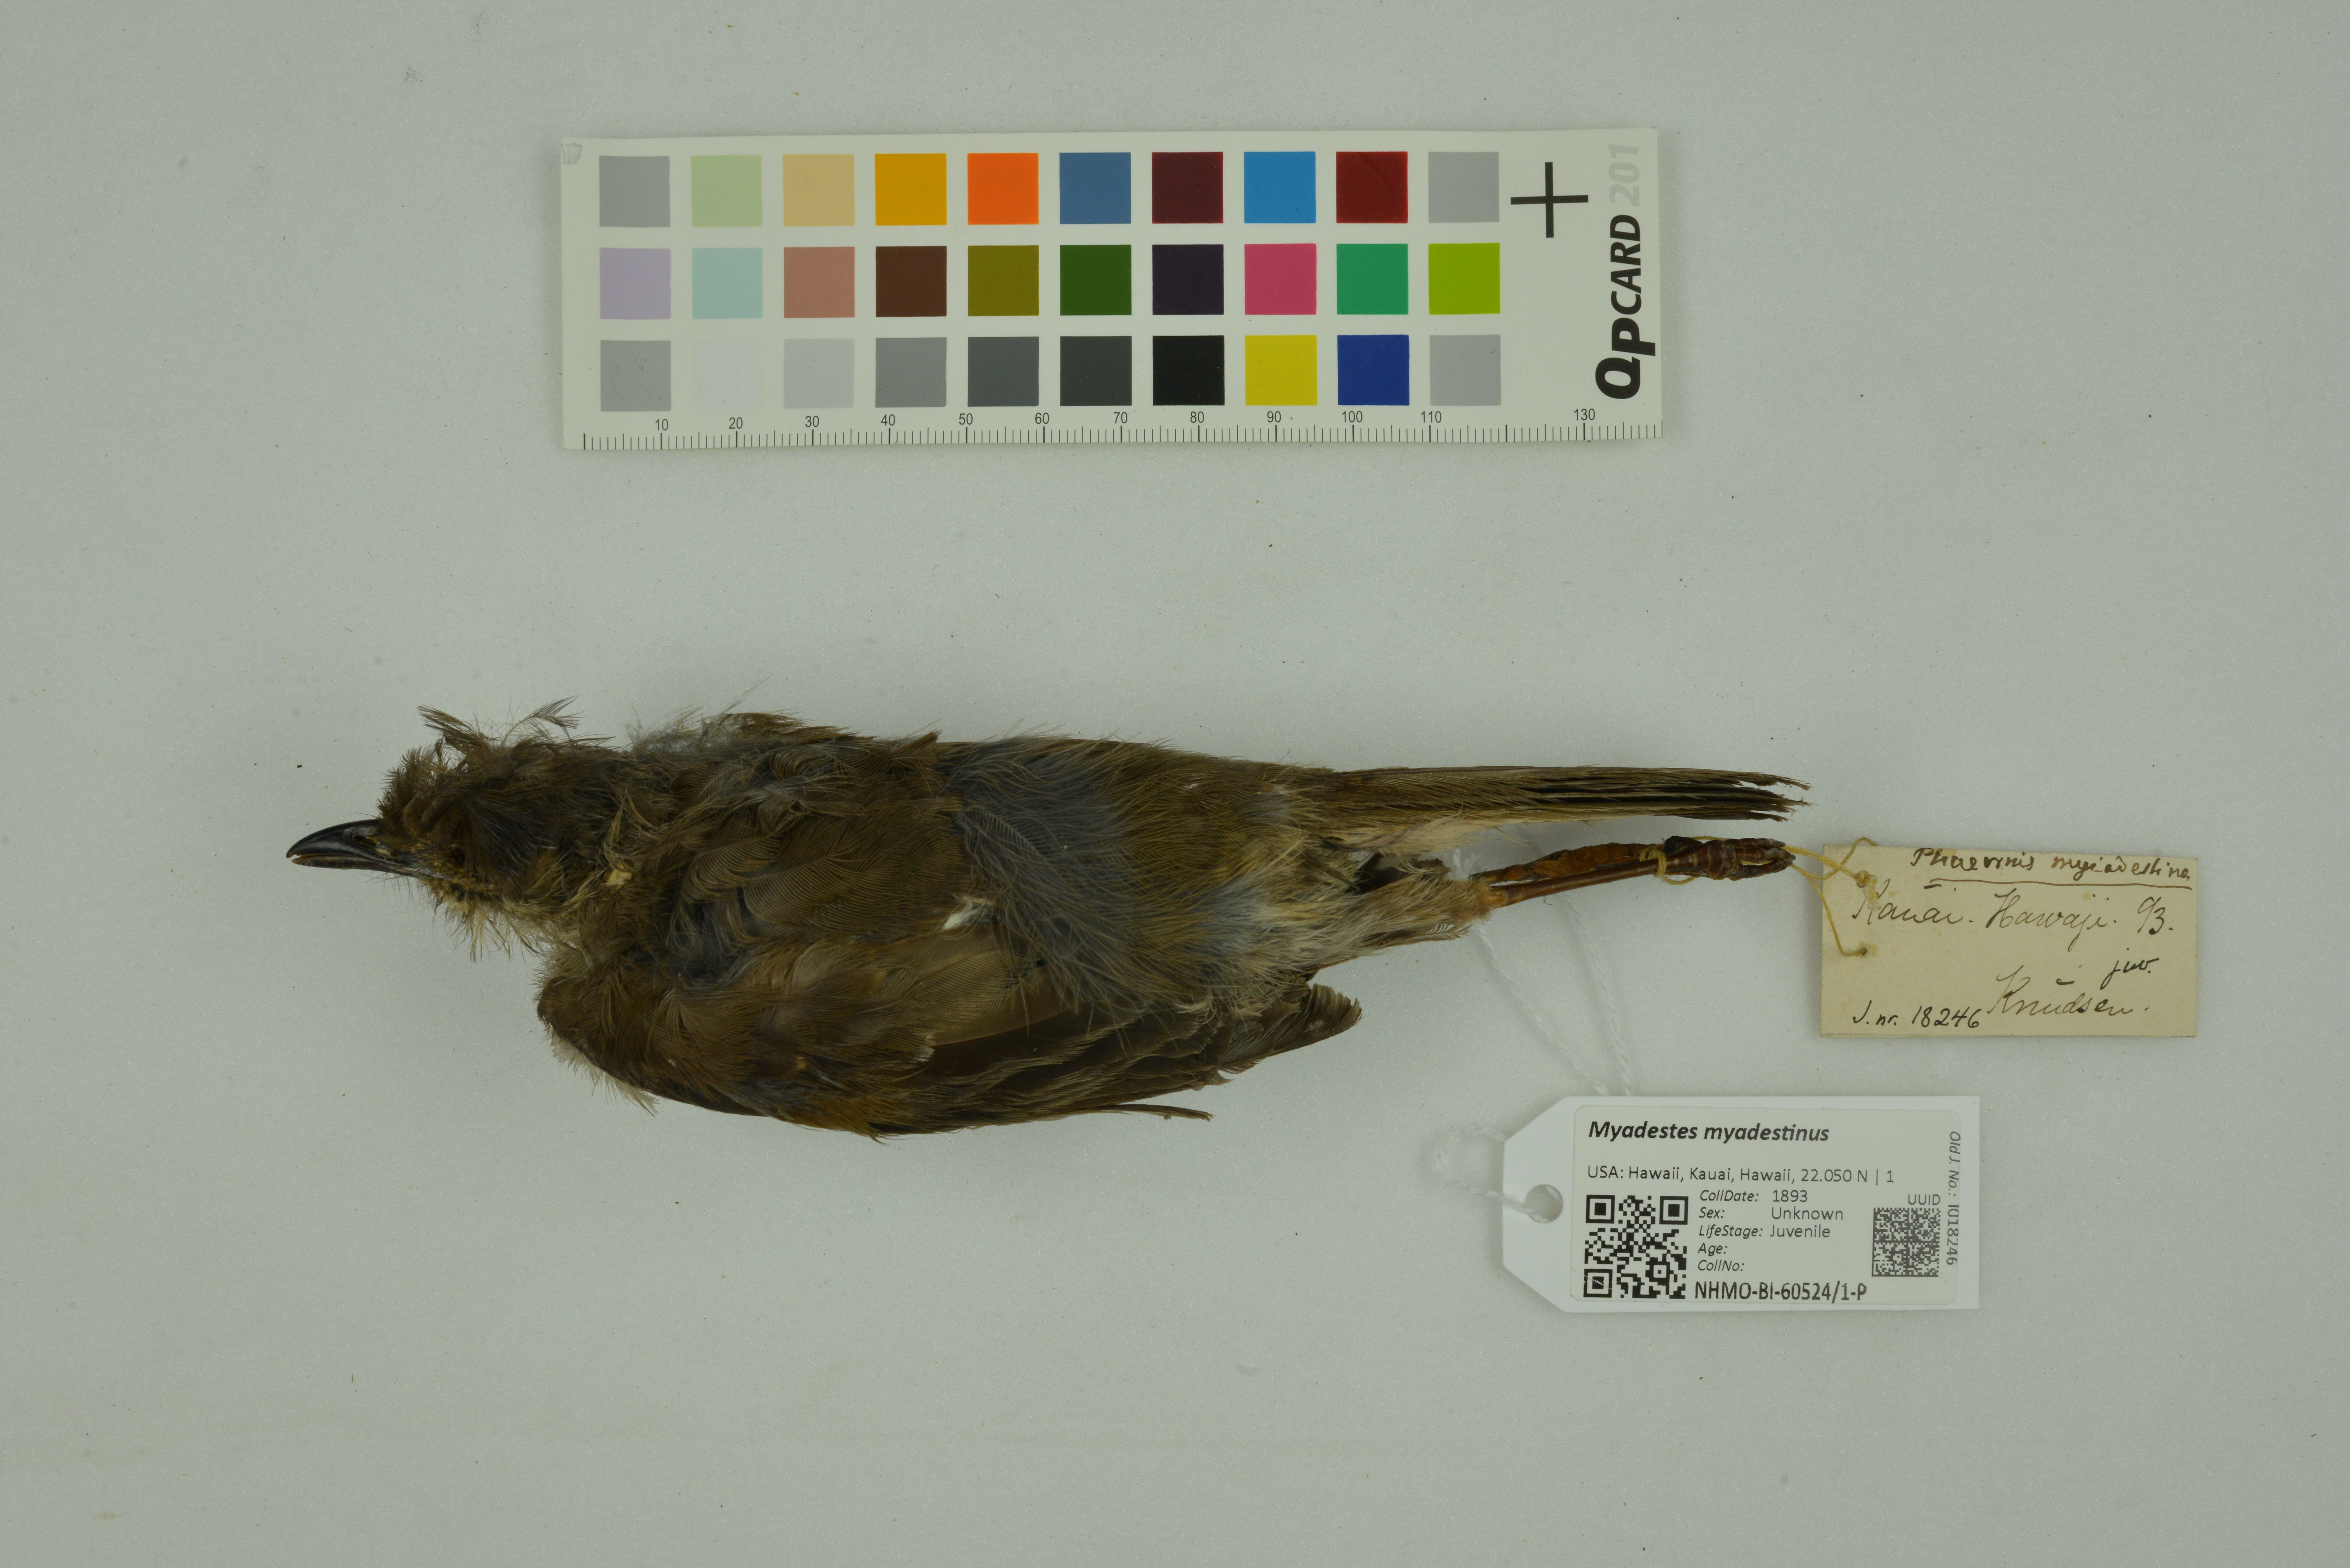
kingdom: Animalia
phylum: Chordata
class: Aves
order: Passeriformes
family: Turdidae
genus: Myadestes
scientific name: Myadestes myadestinus
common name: Kamao
